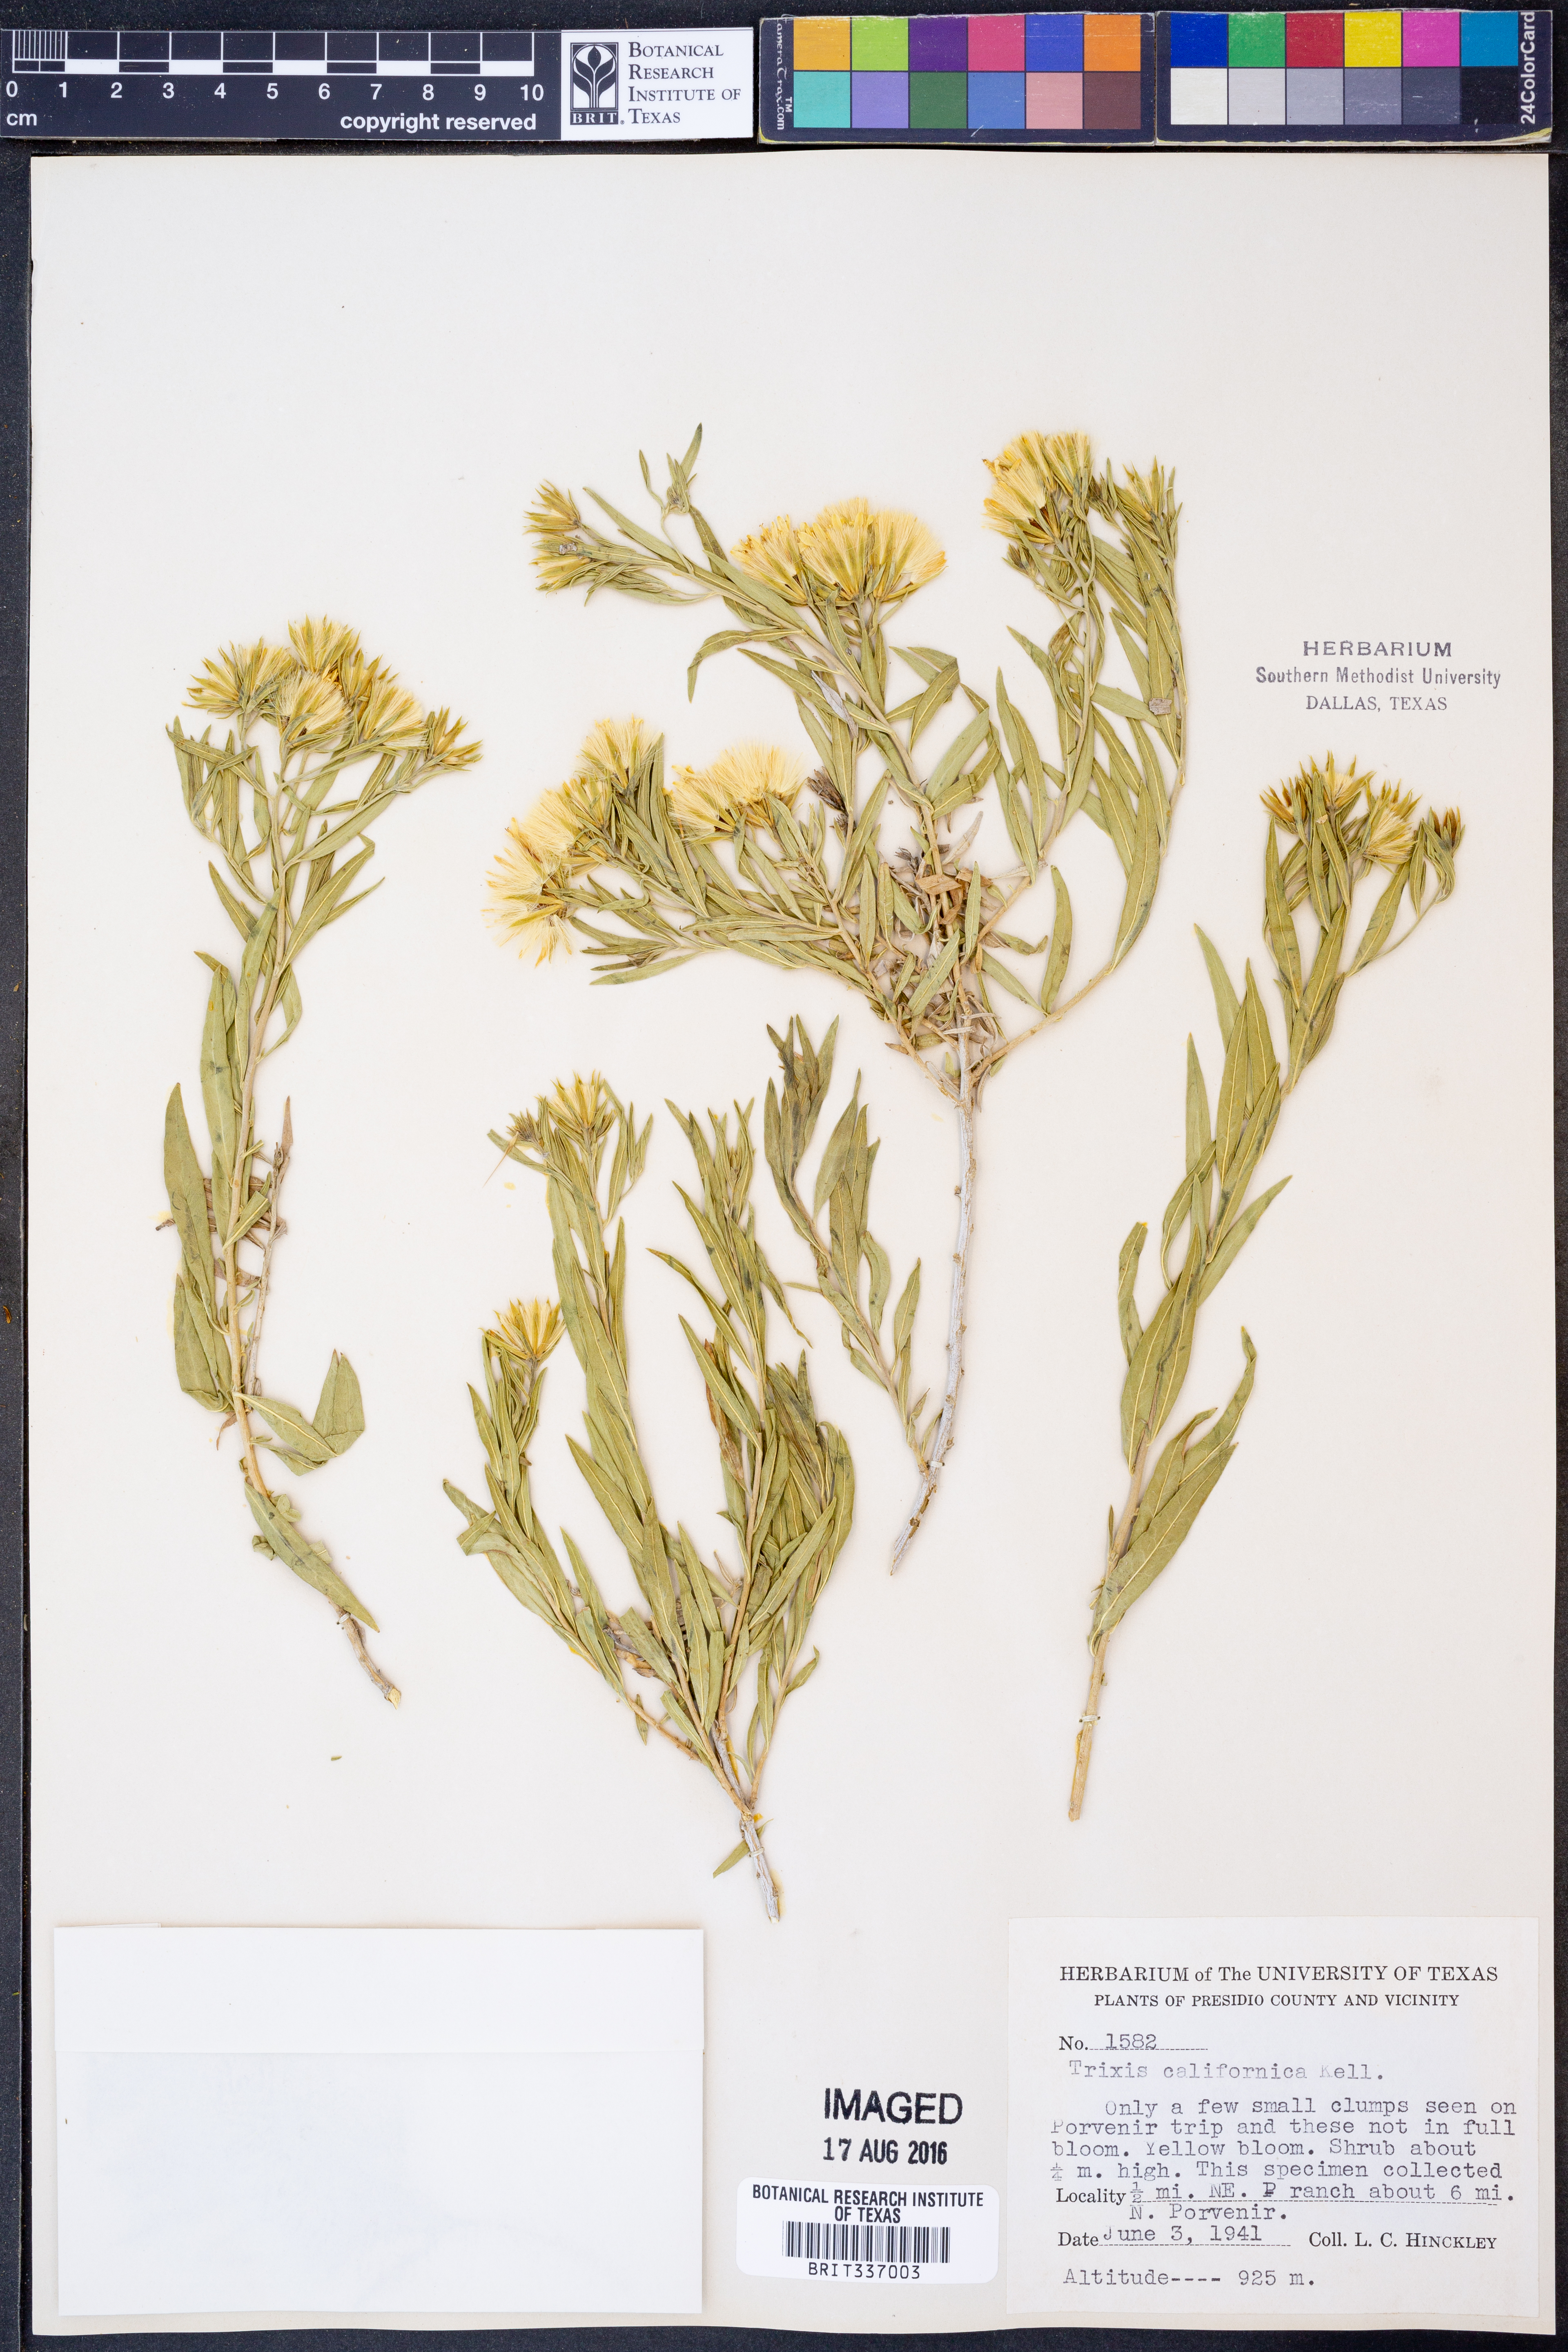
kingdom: Plantae
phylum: Tracheophyta
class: Magnoliopsida
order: Asterales
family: Asteraceae
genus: Trixis
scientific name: Trixis californica
